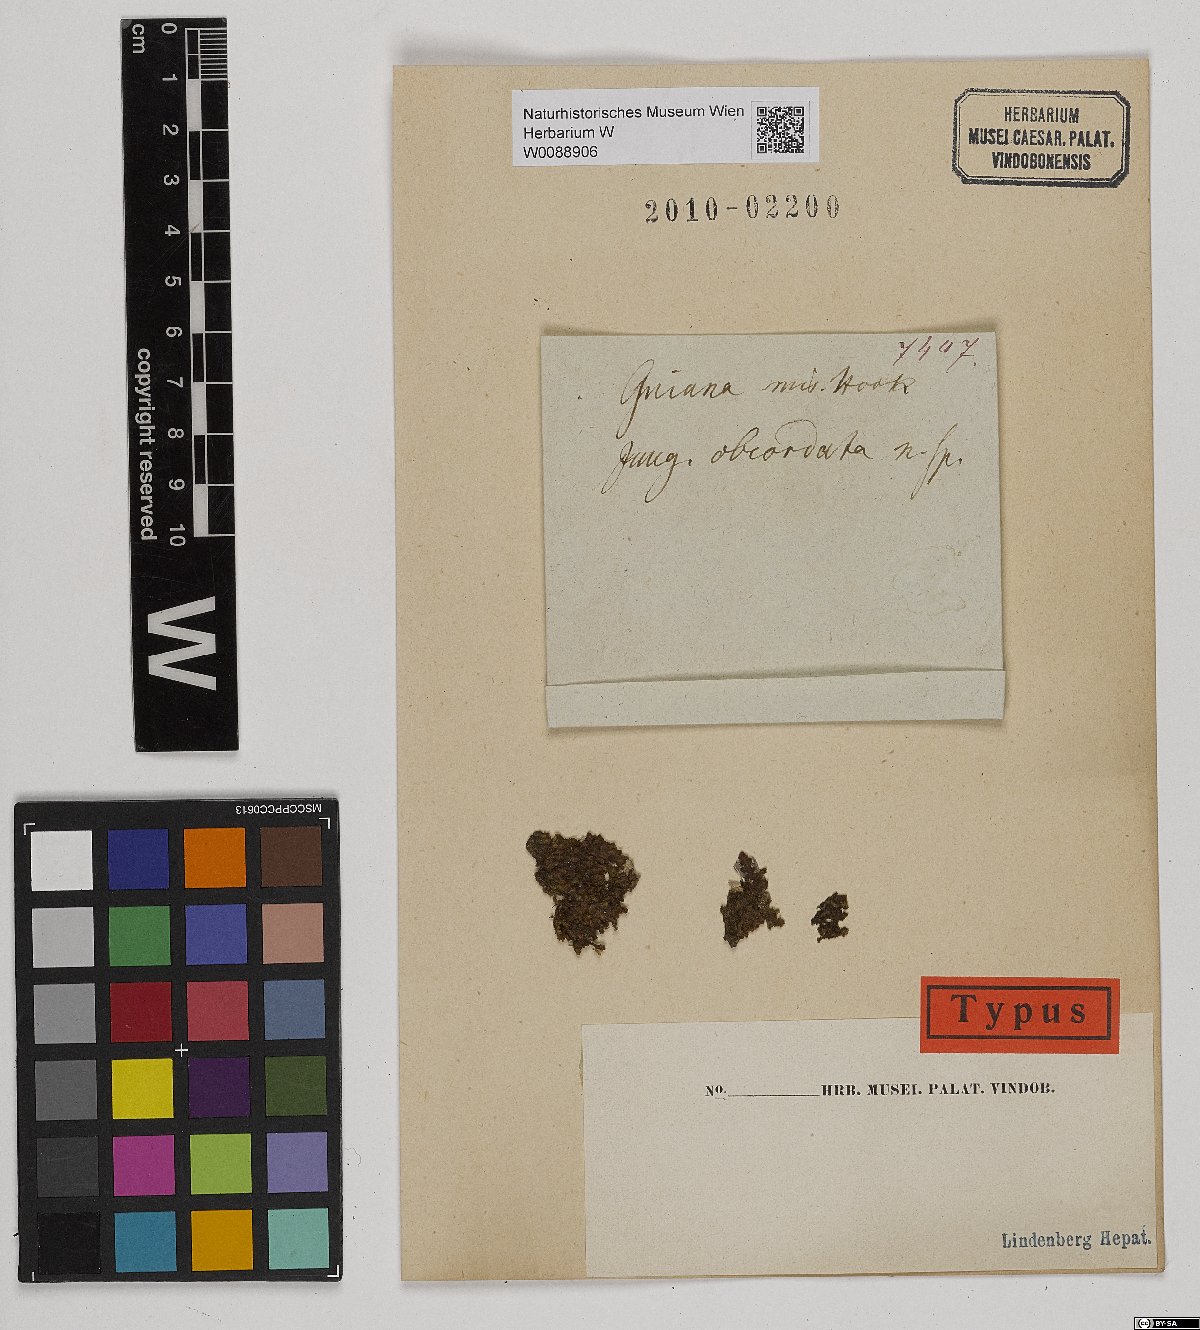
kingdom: Plantae
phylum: Marchantiophyta
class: Jungermanniopsida
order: Porellales
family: Frullaniaceae
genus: Frullania
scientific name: Frullania obcordata
